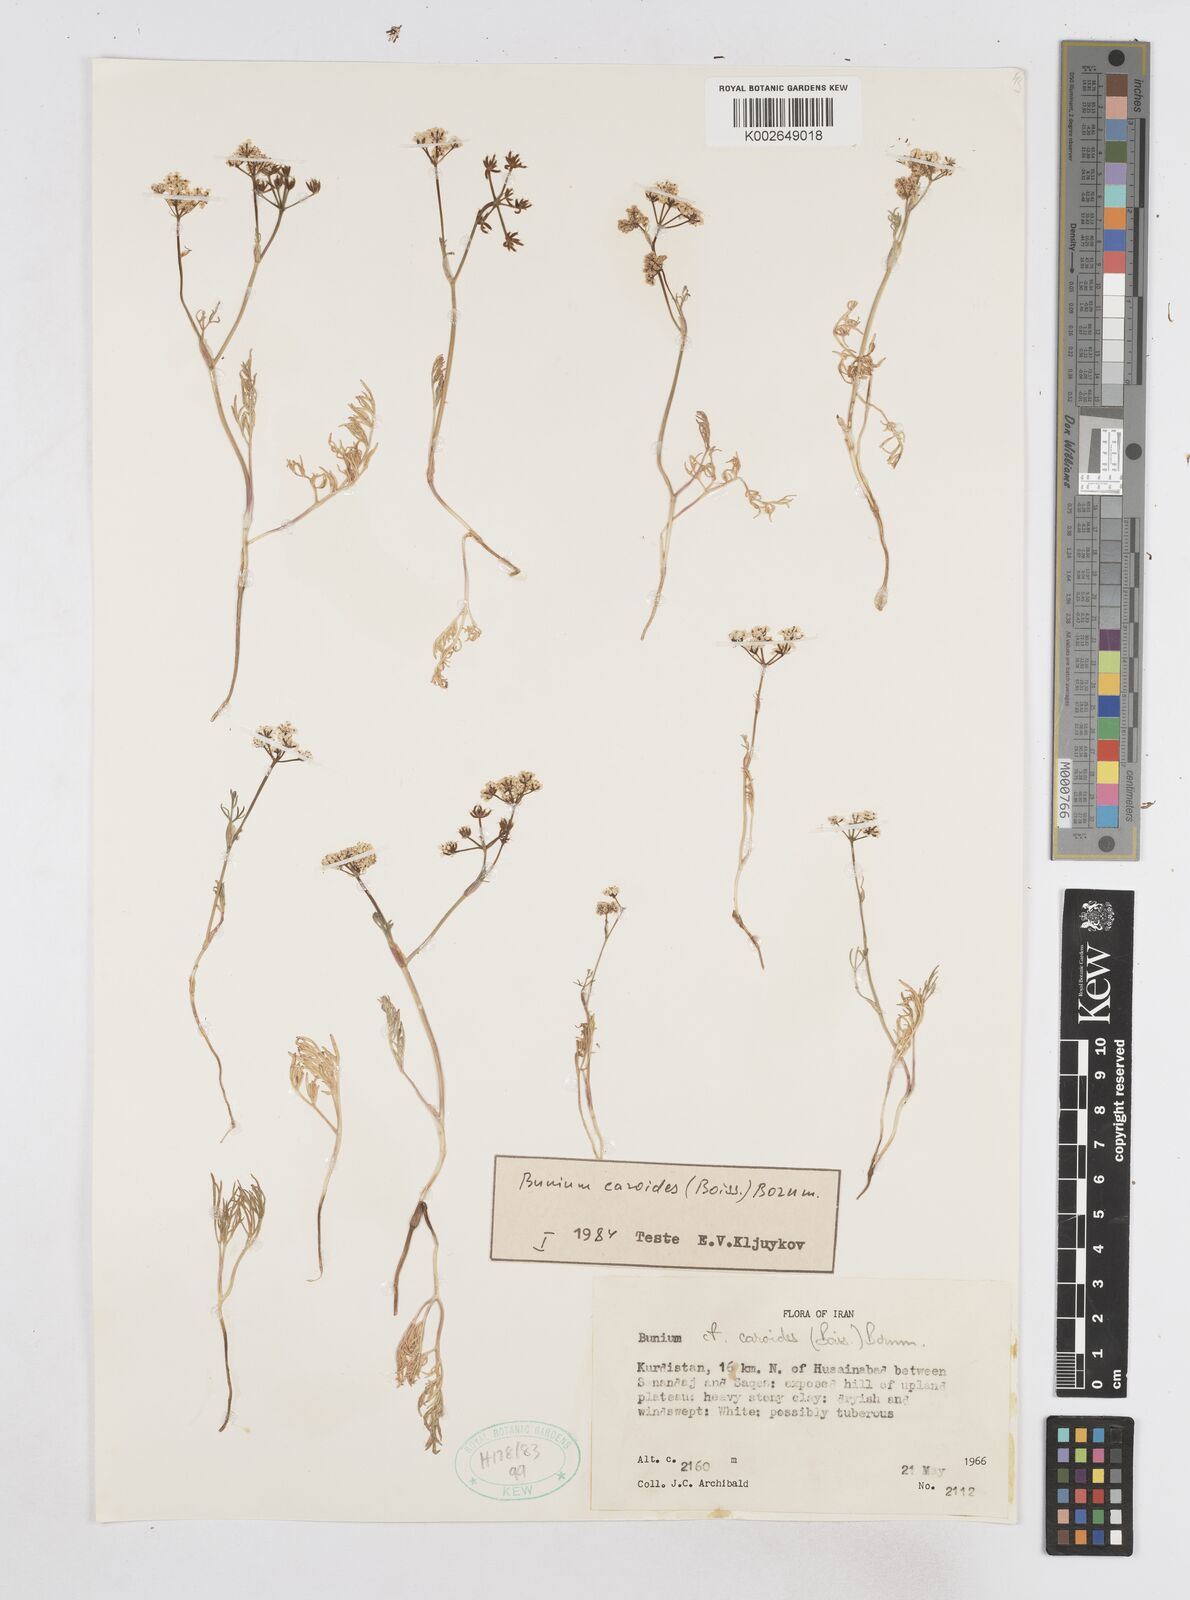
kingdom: Plantae
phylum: Tracheophyta
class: Magnoliopsida
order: Apiales
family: Apiaceae
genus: Elwendia
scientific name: Elwendia caroides
